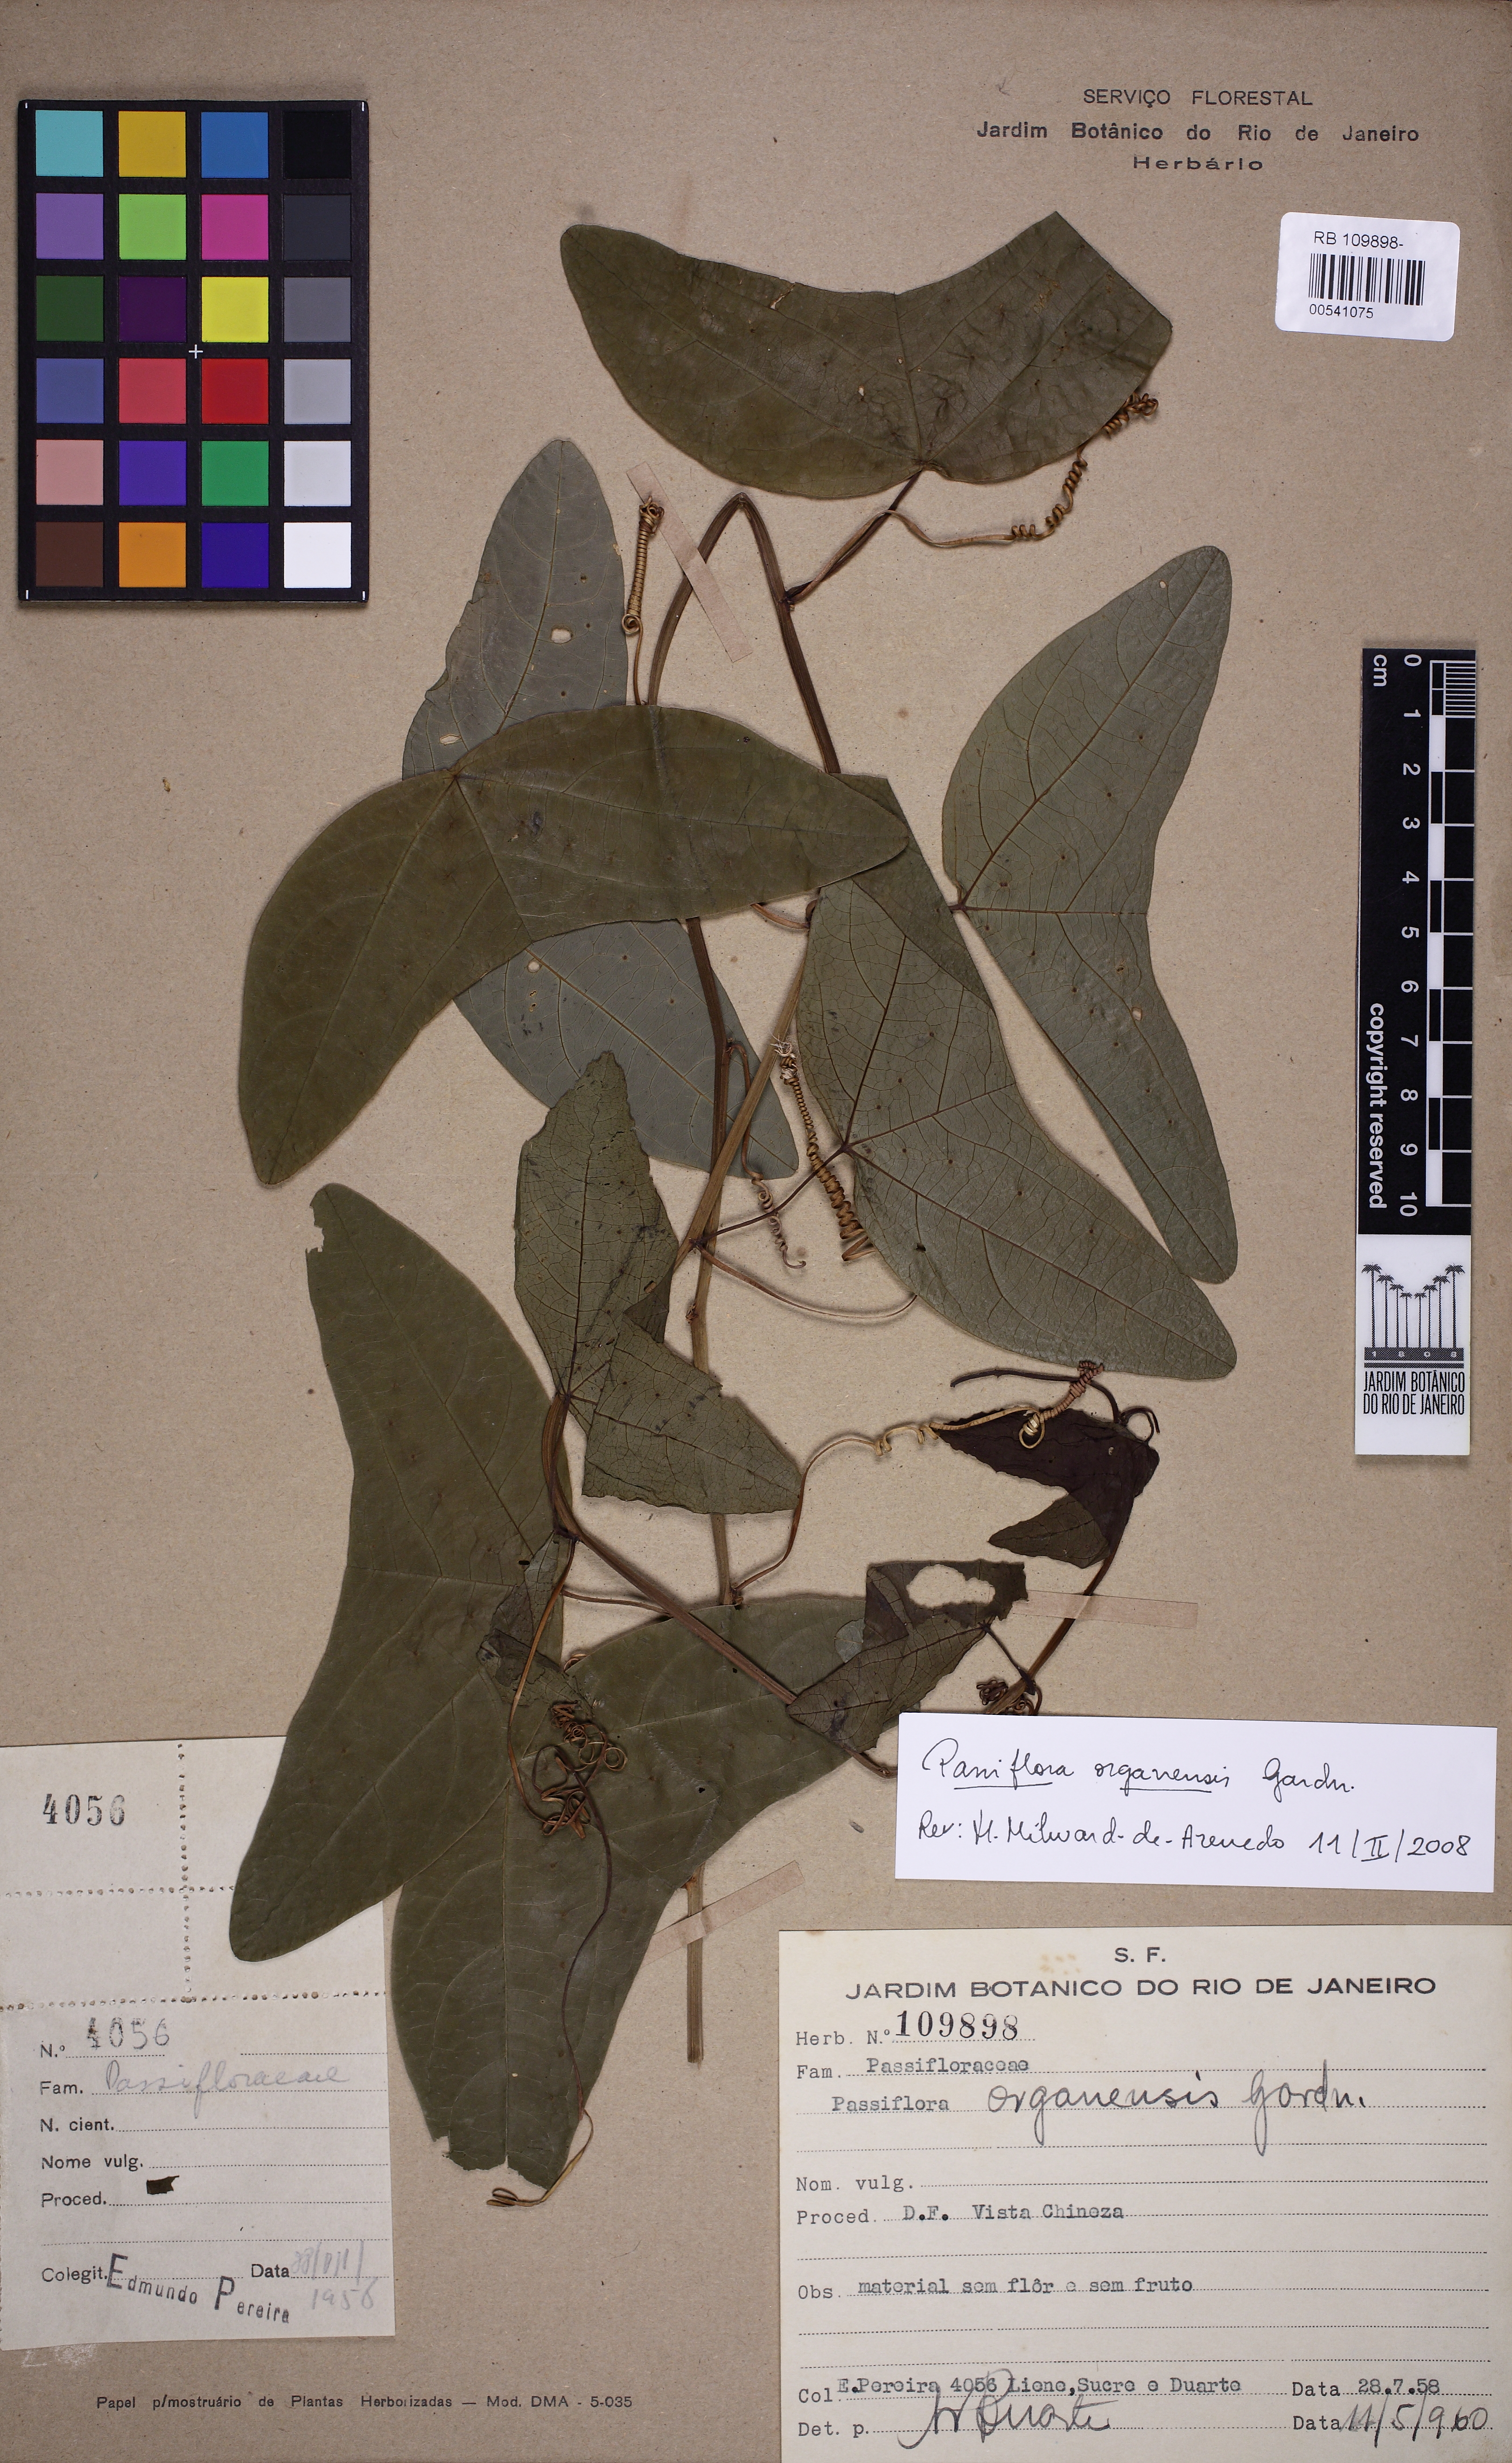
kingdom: Plantae
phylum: Tracheophyta
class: Magnoliopsida
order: Malpighiales
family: Passifloraceae
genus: Passiflora
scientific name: Passiflora porophylla
